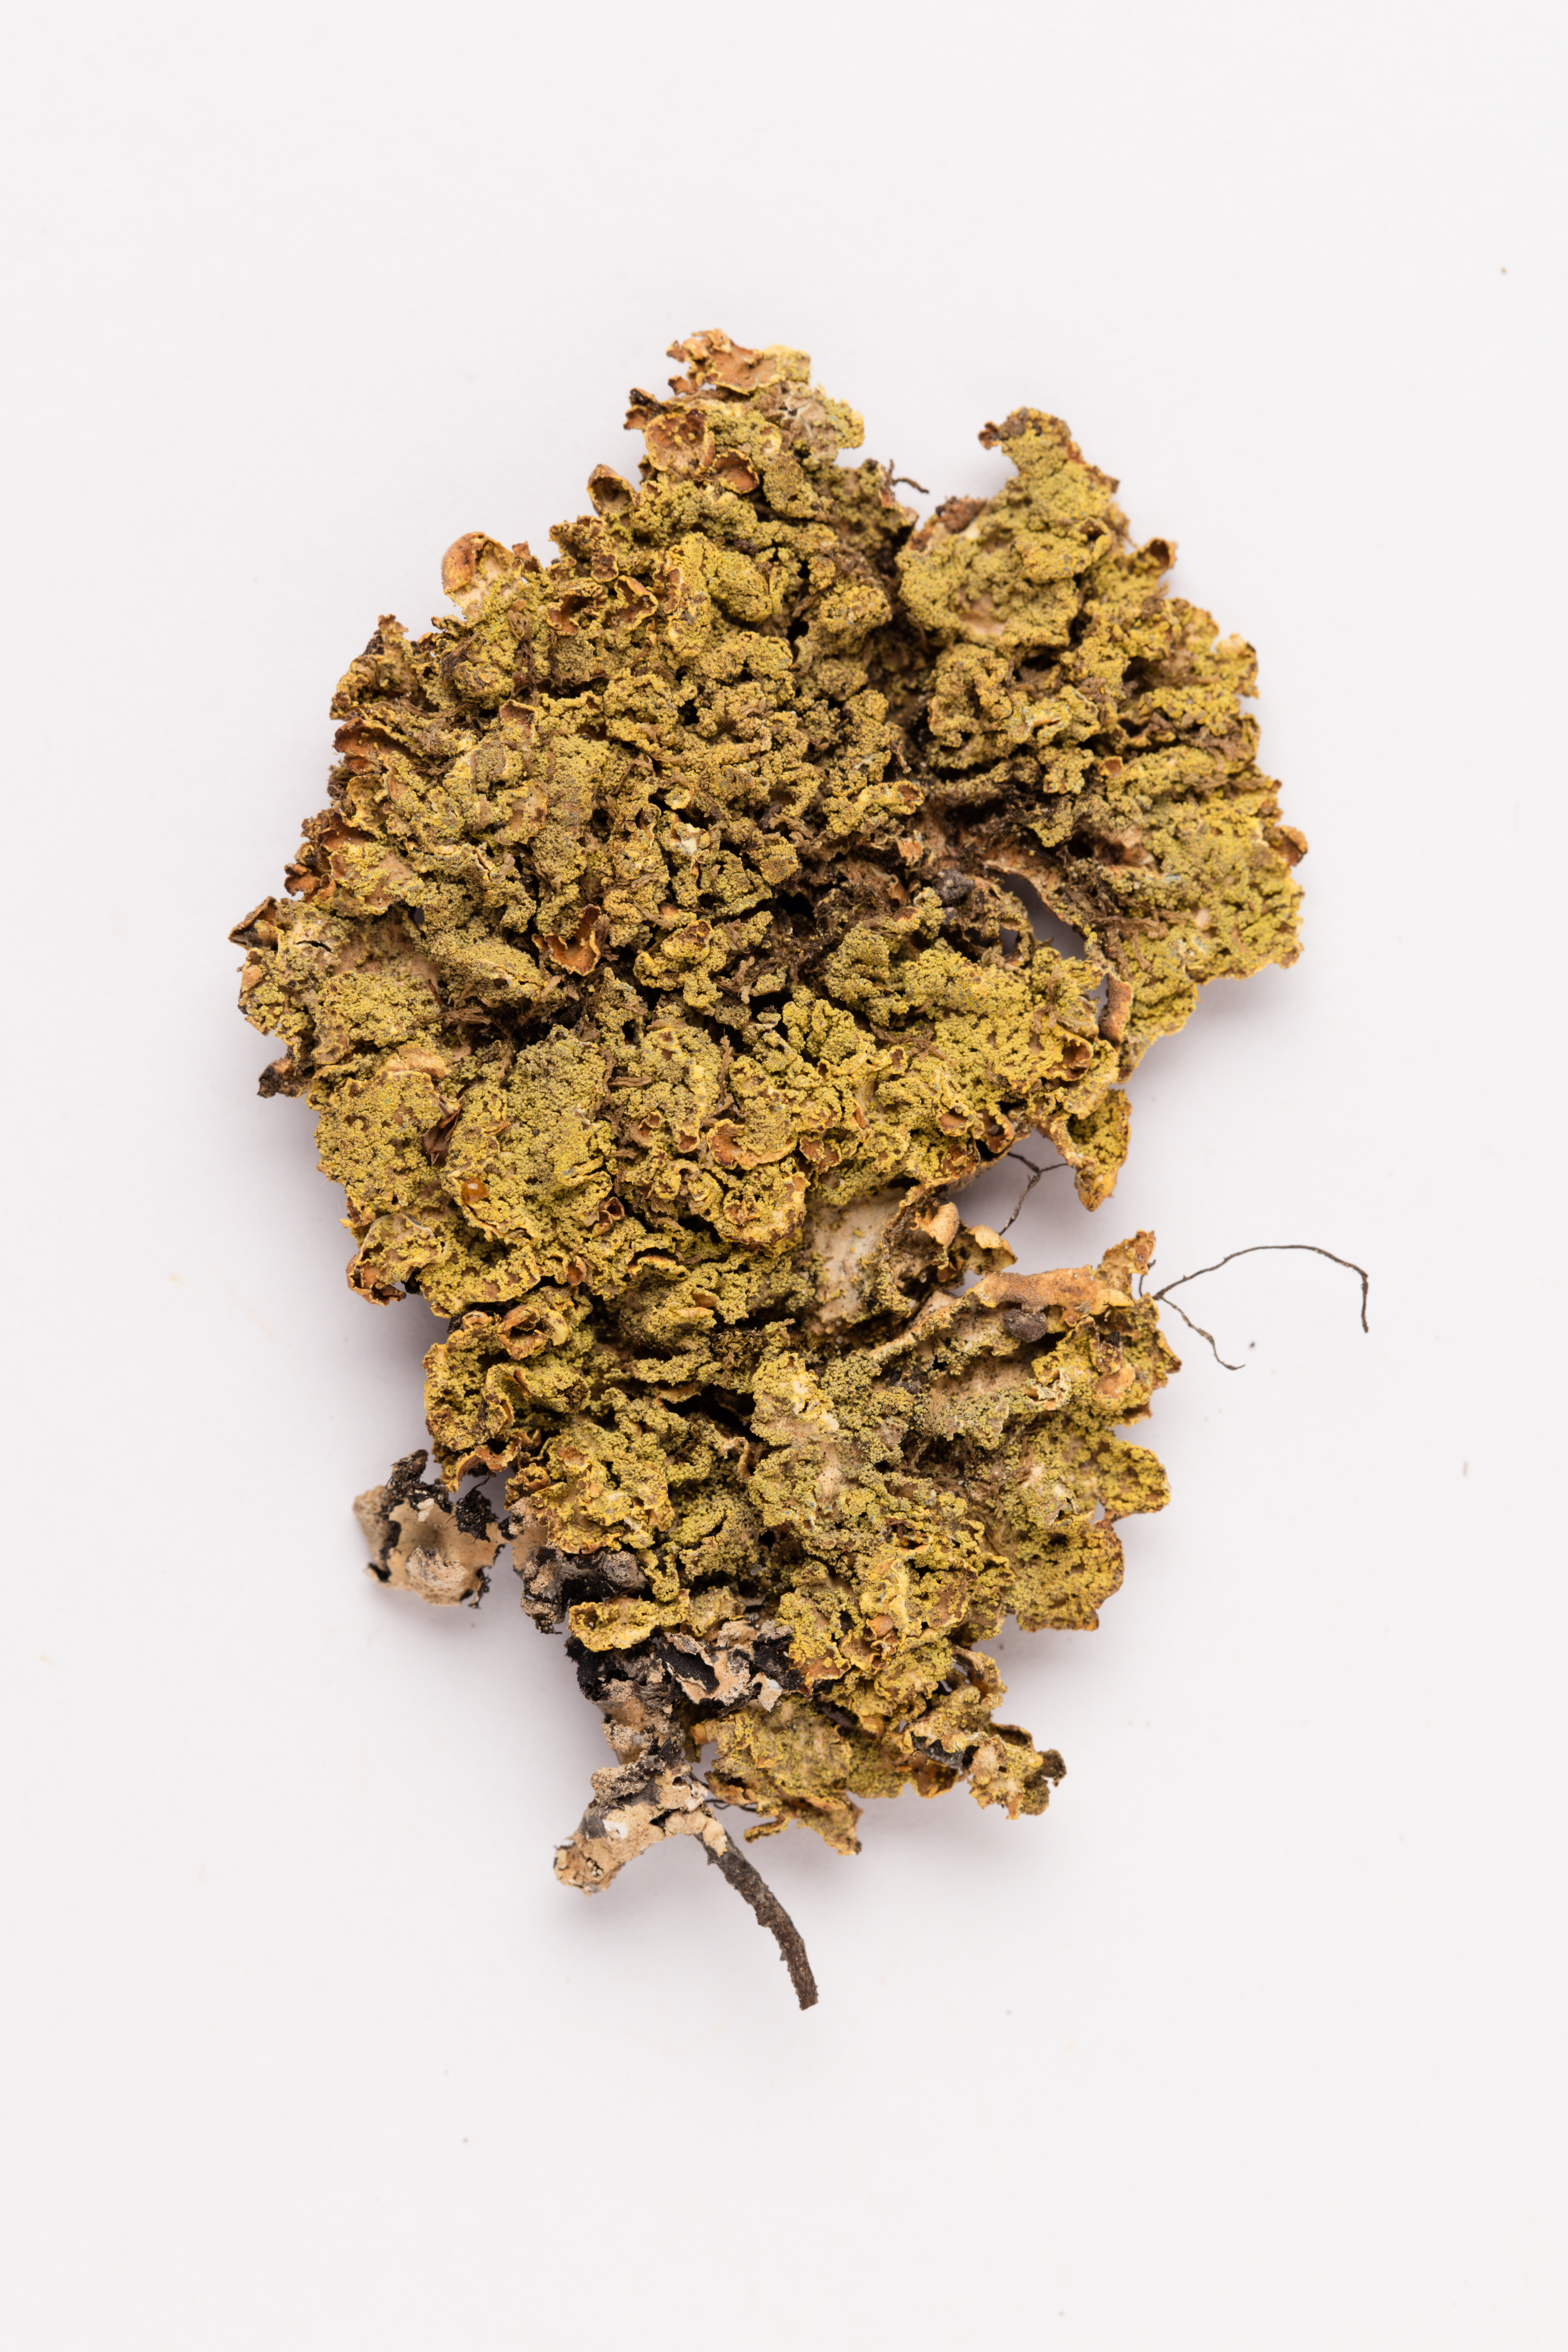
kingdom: Fungi
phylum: Ascomycota
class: Lecanoromycetes
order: Peltigerales
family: Lobariaceae
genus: Pseudocyphellaria
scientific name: Pseudocyphellaria crocata
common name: Golden specklebelly
